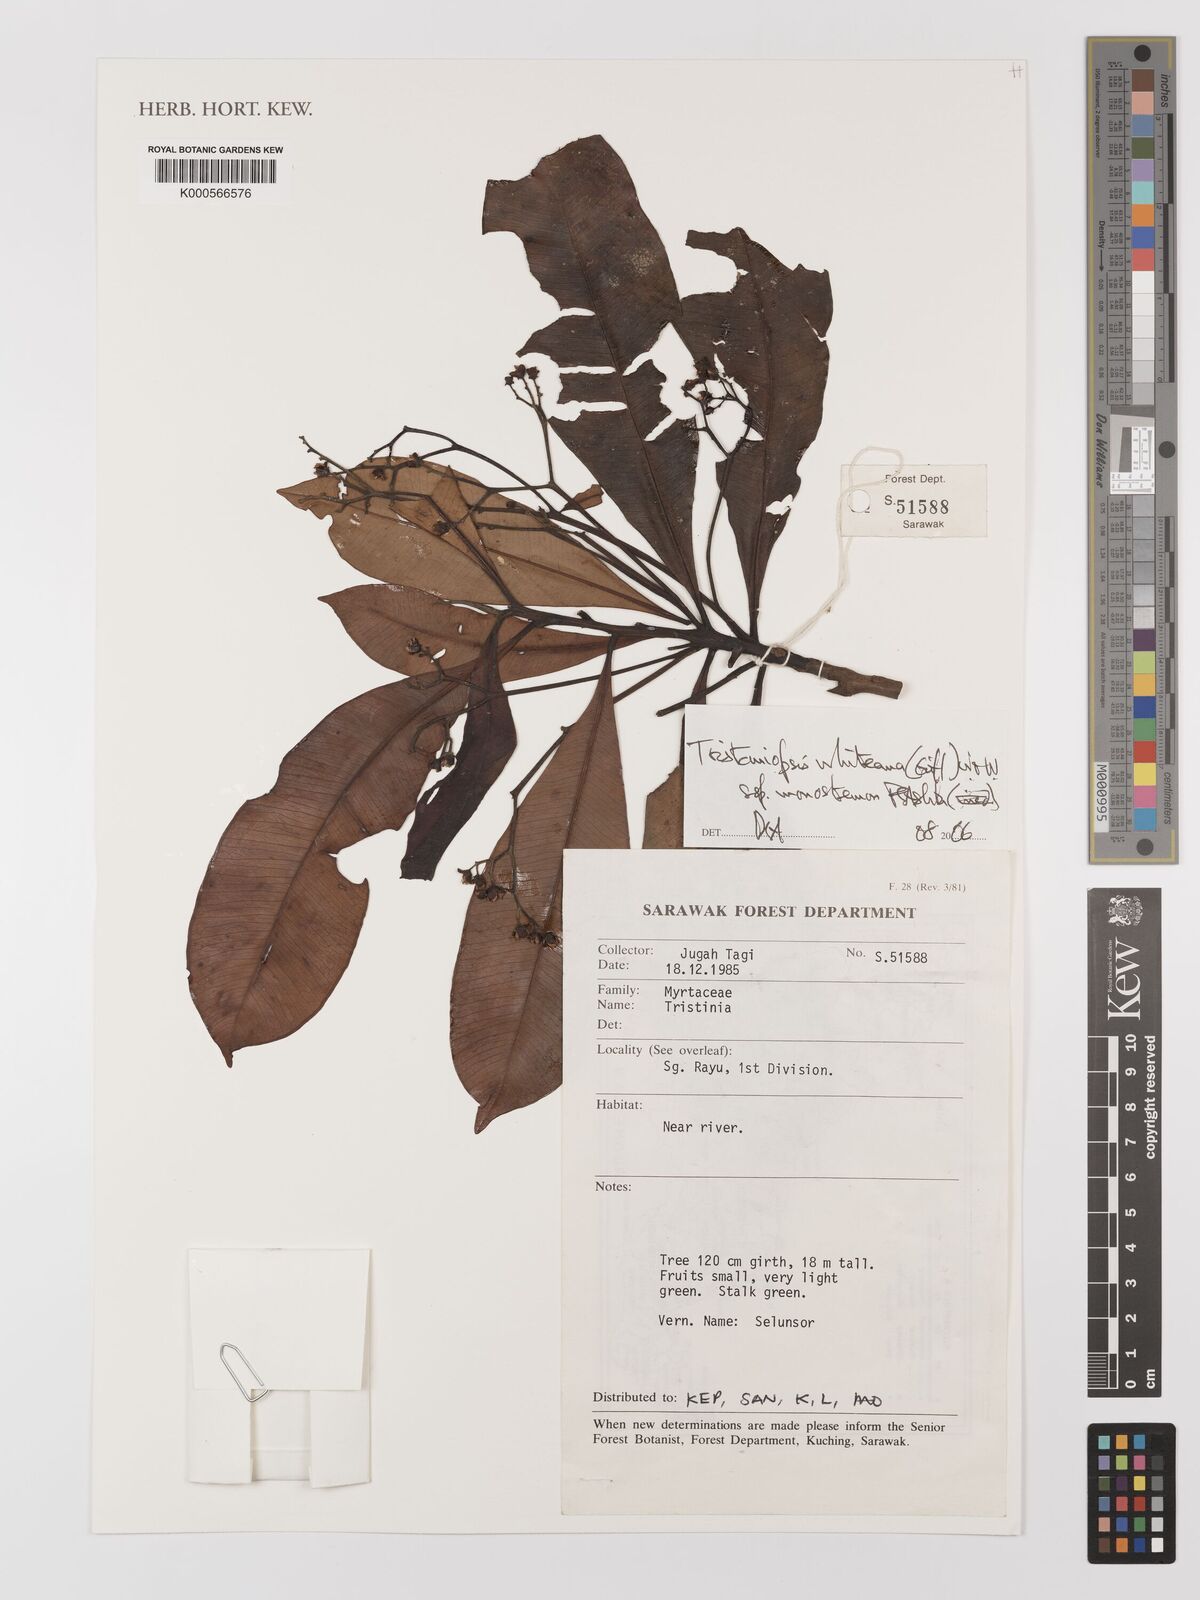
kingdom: Plantae
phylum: Tracheophyta
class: Magnoliopsida
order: Myrtales
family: Myrtaceae
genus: Tristaniopsis
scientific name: Tristaniopsis whiteana
